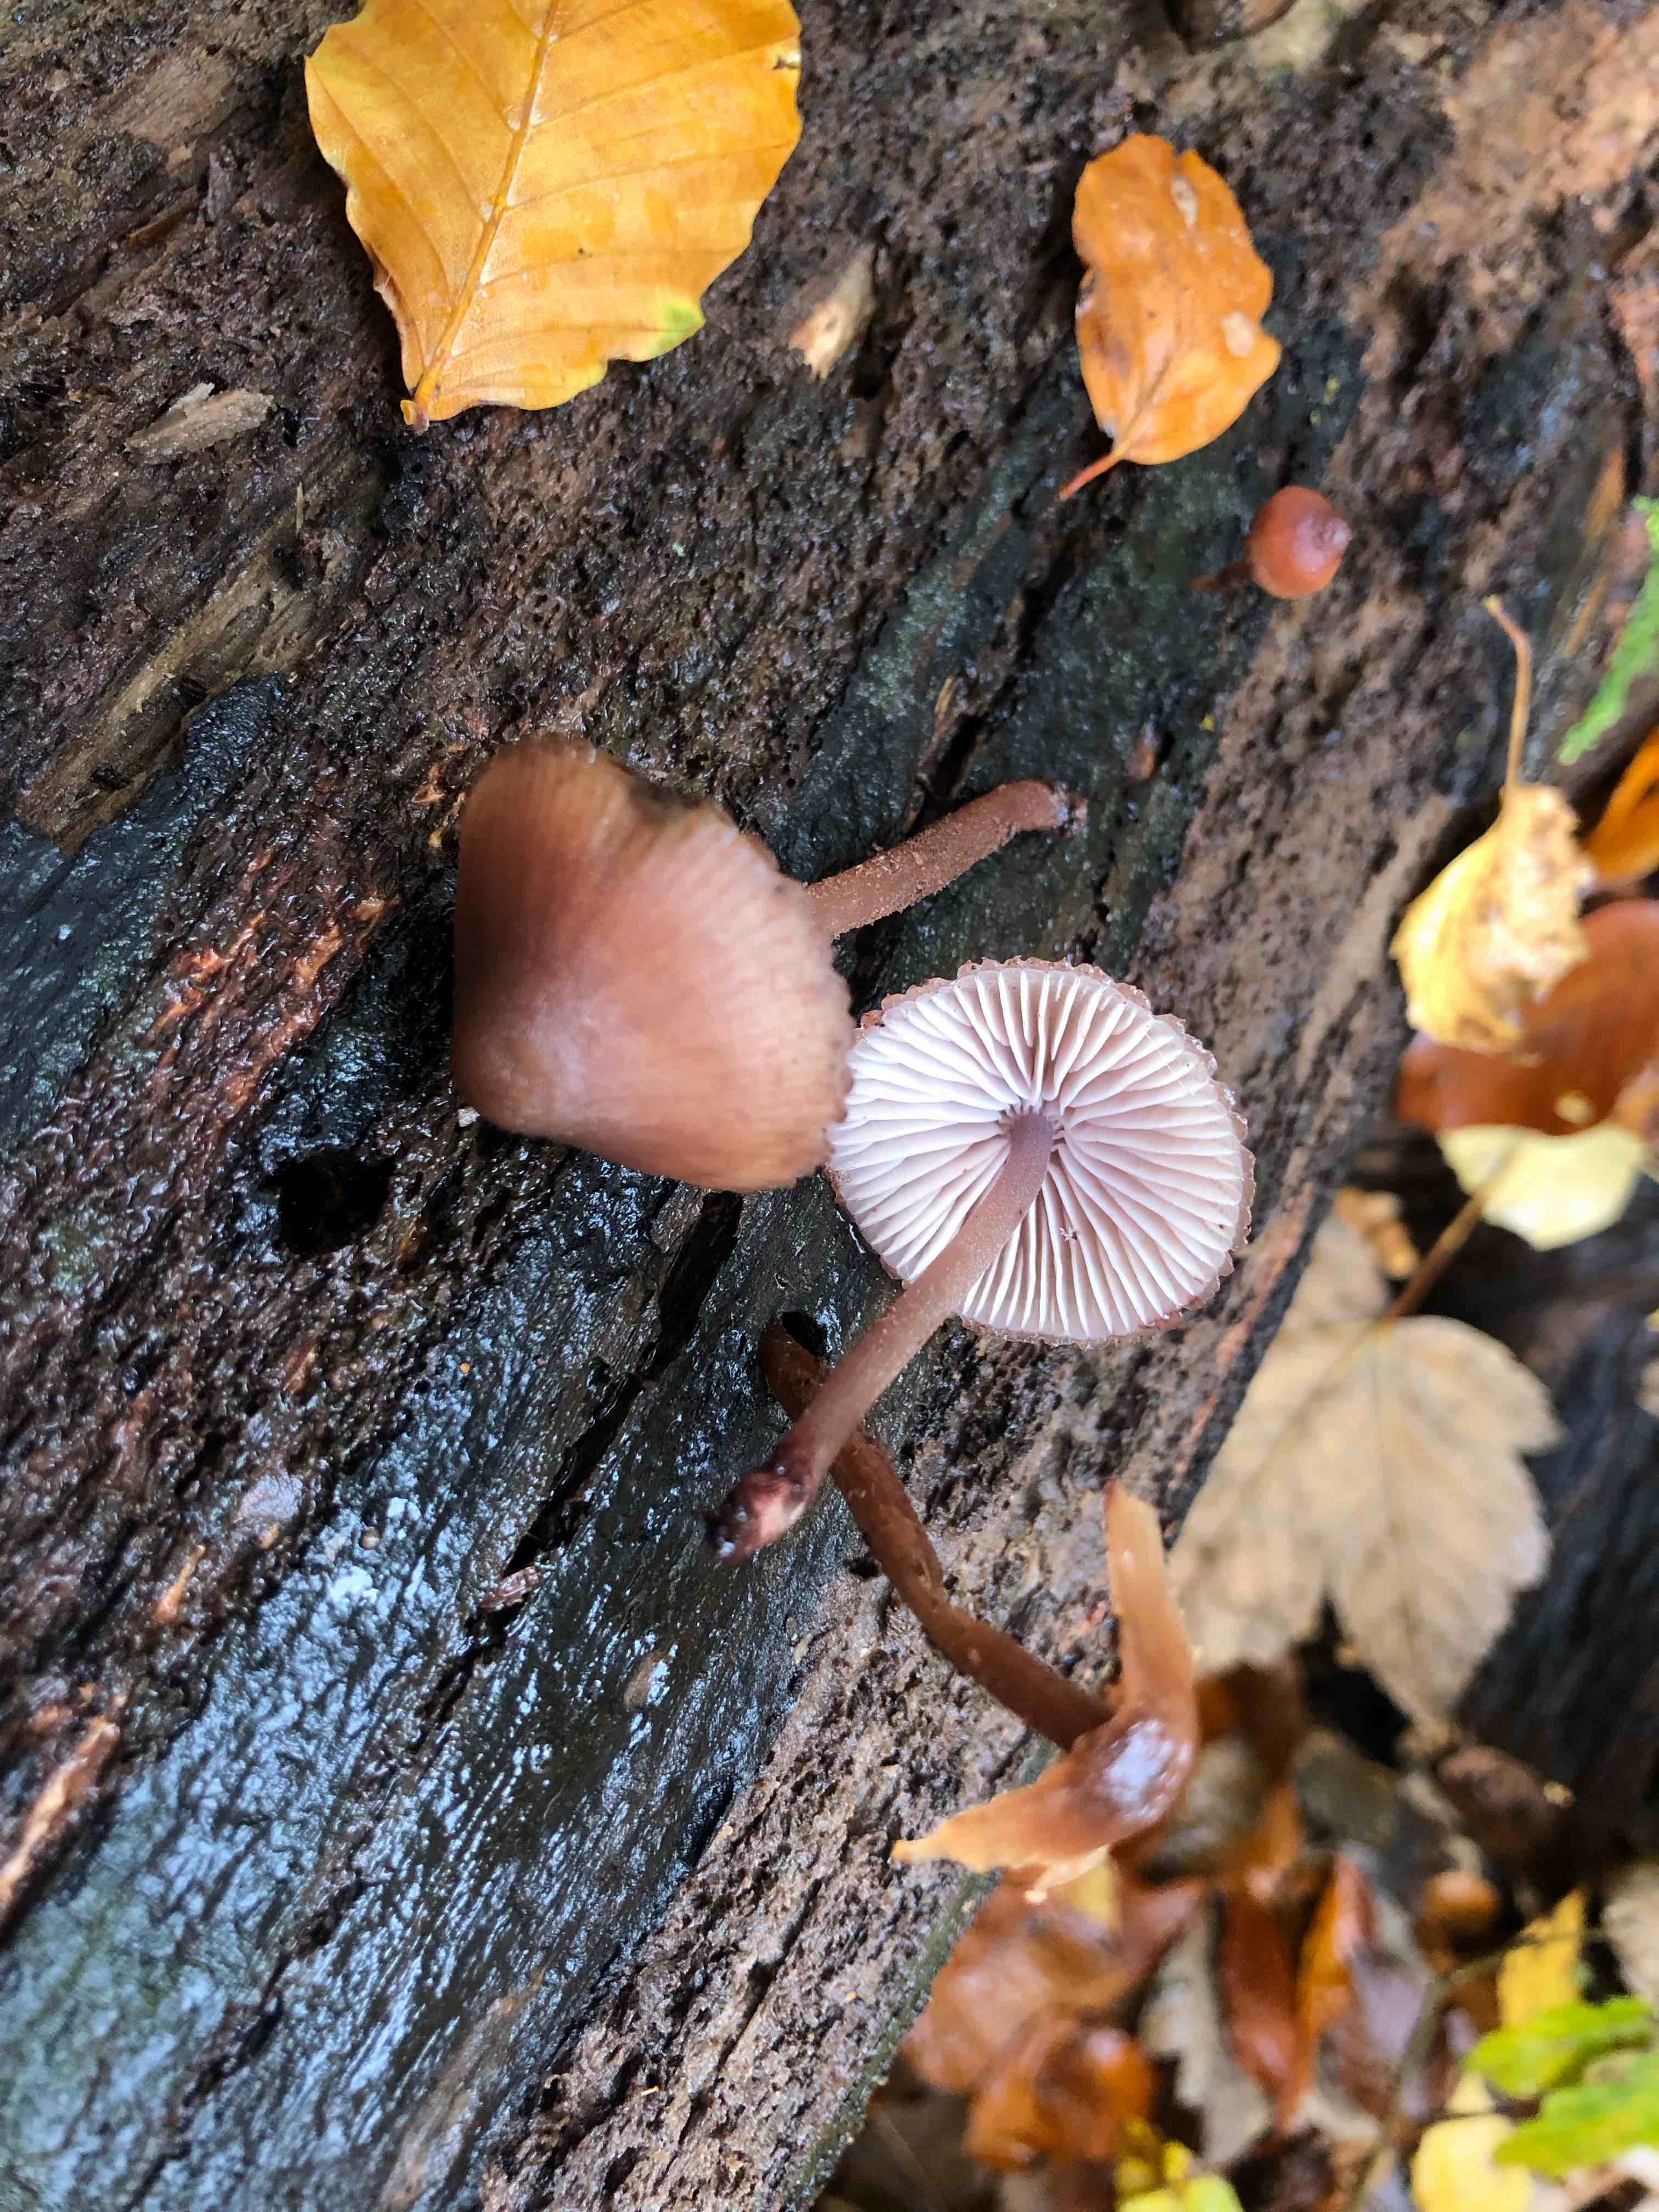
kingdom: Fungi
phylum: Basidiomycota
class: Agaricomycetes
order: Agaricales
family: Mycenaceae
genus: Mycena
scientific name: Mycena haematopus
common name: blødende huesvamp
